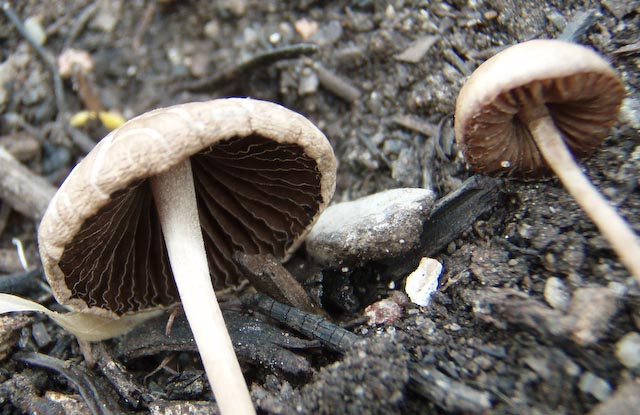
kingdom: Fungi
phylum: Basidiomycota
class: Agaricomycetes
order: Agaricales
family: Bolbitiaceae
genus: Panaeolina
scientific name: Panaeolina foenisecii
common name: høslætsvamp
